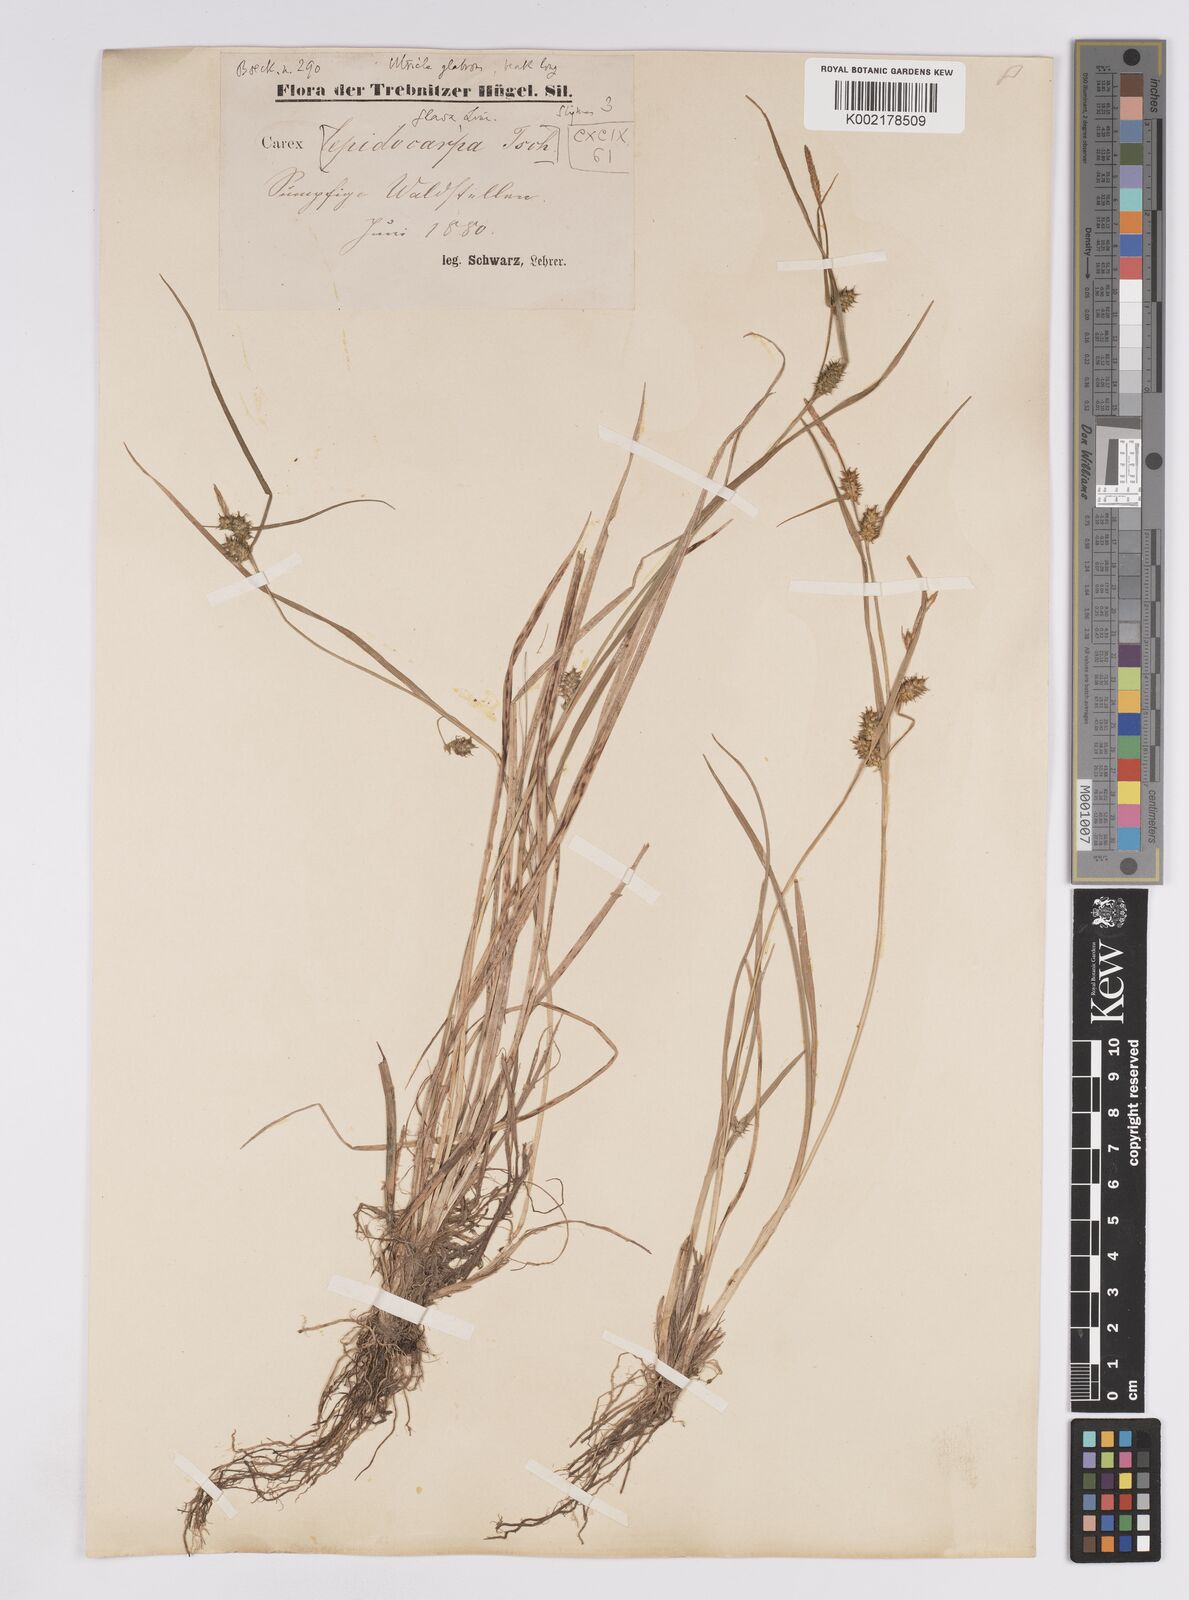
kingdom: Plantae
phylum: Tracheophyta
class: Liliopsida
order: Poales
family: Cyperaceae
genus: Carex
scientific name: Carex demissa
